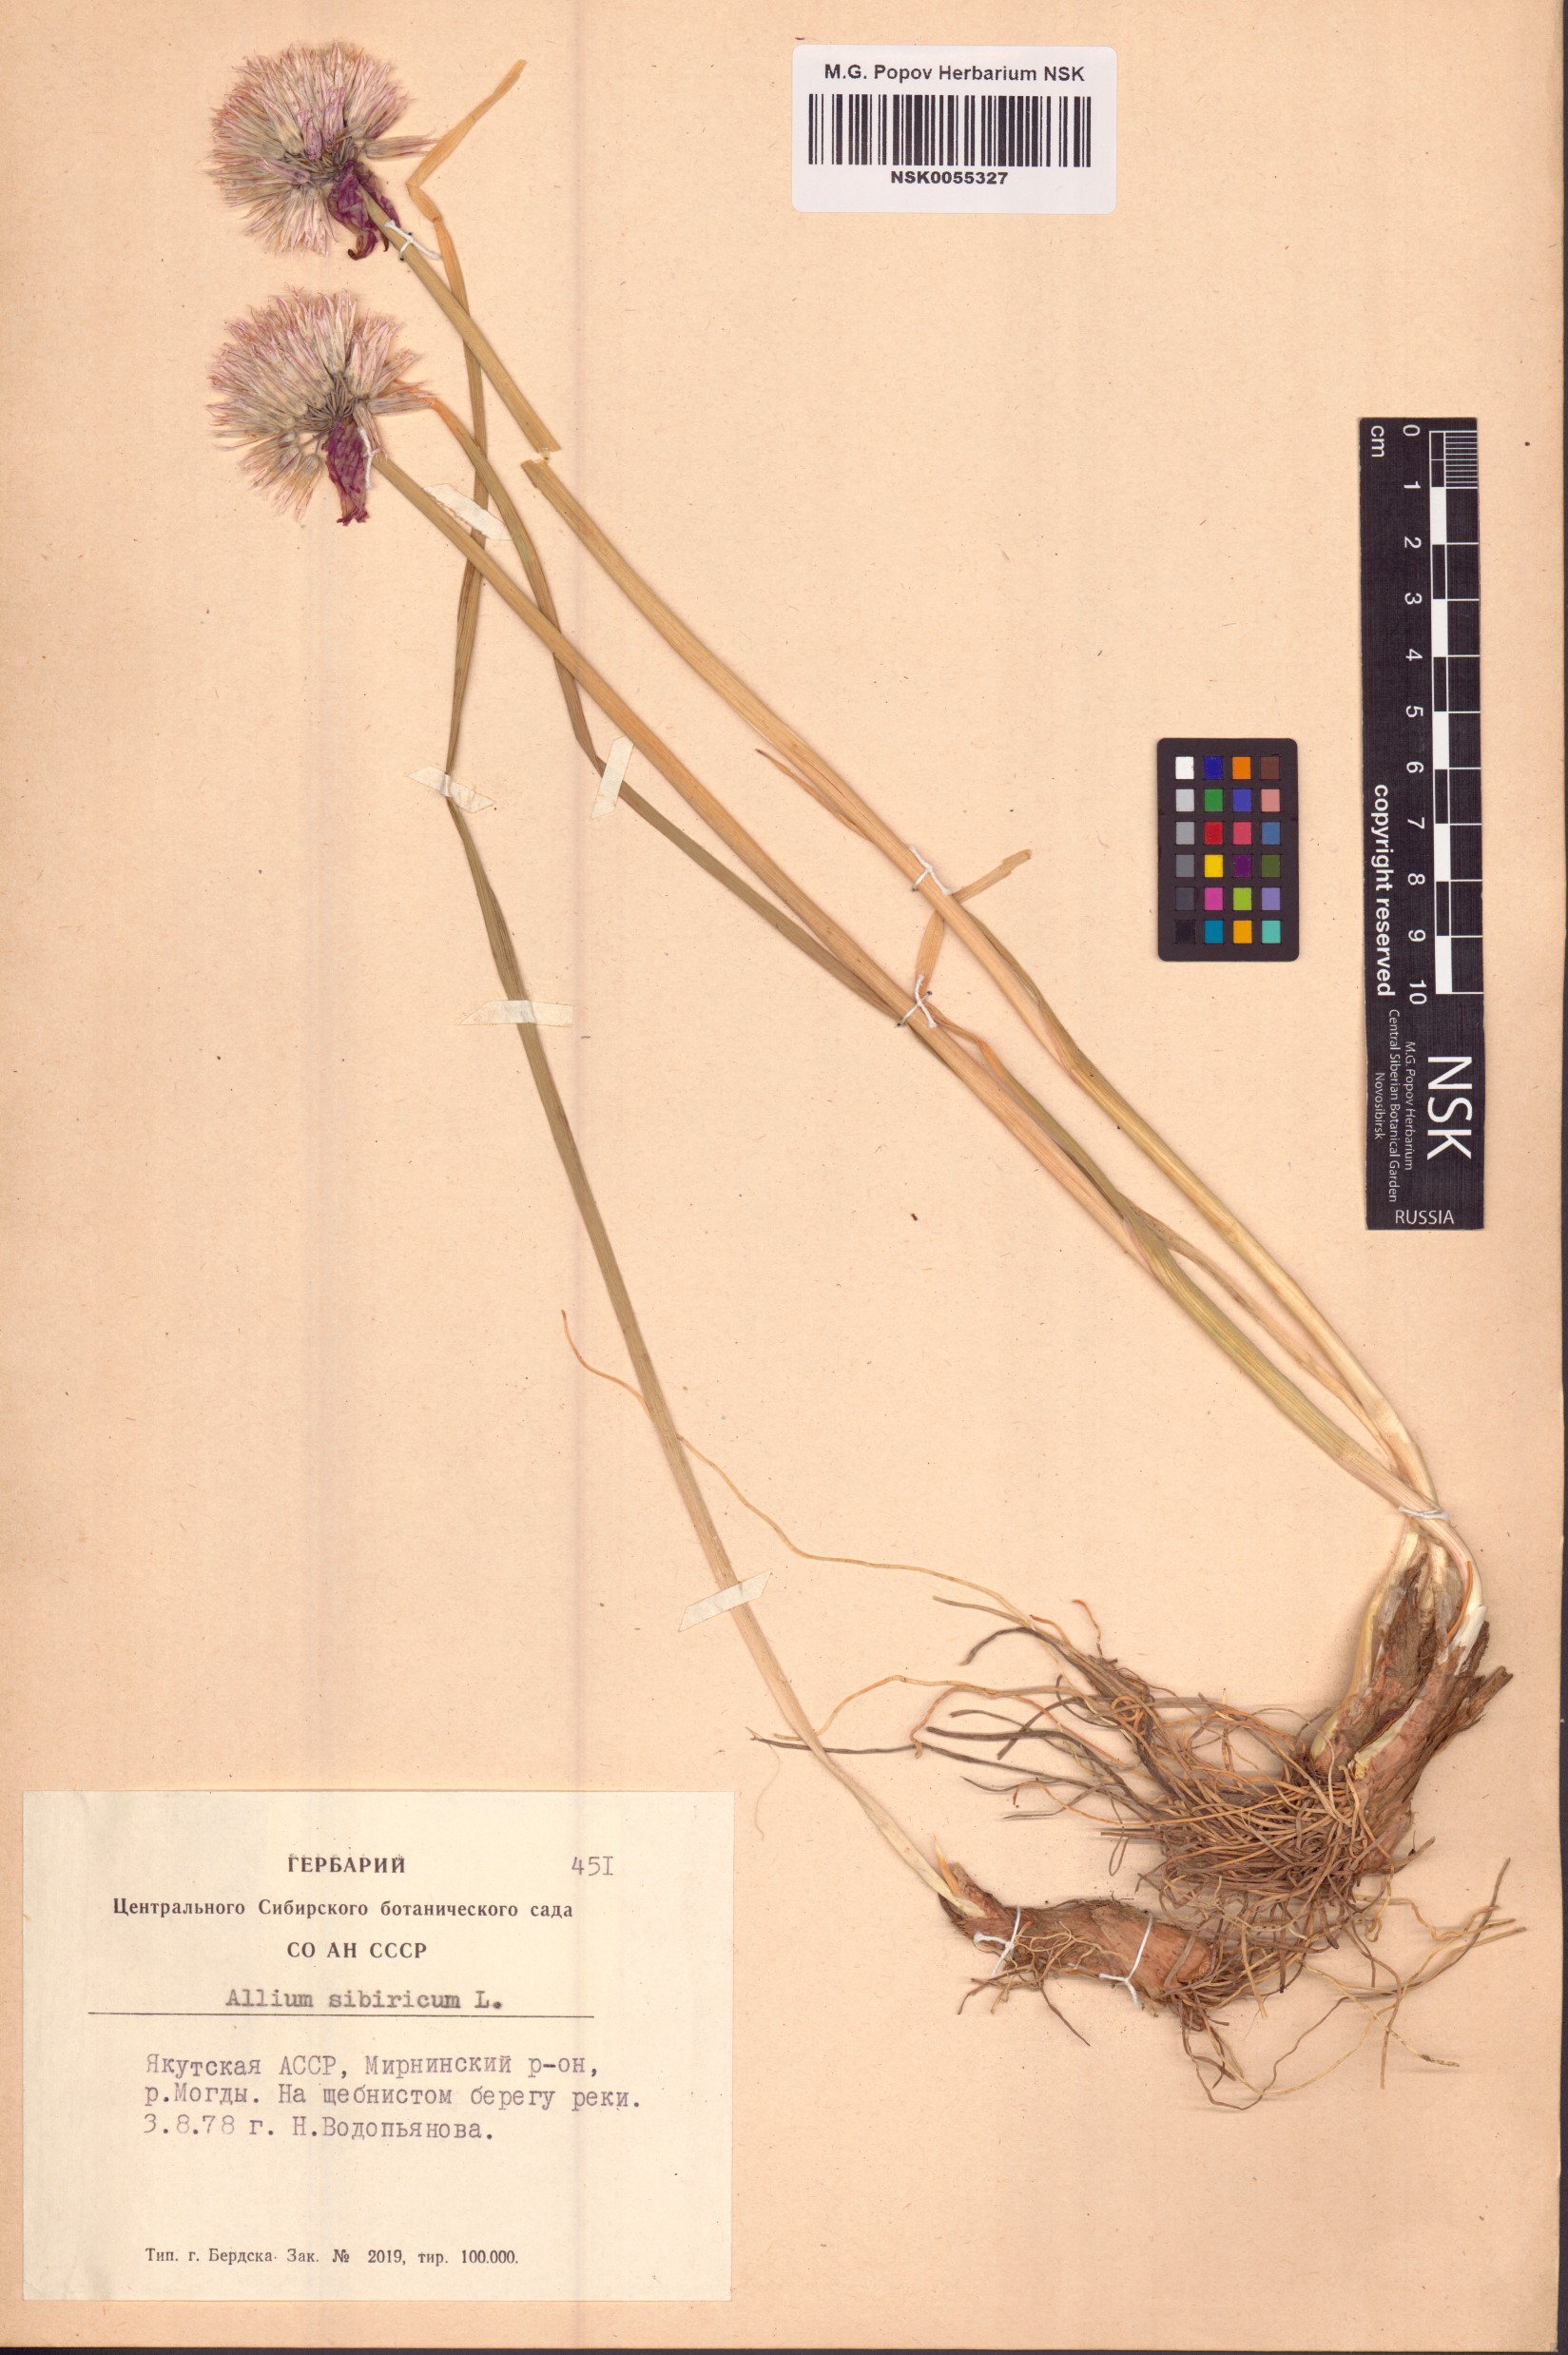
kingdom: Plantae
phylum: Tracheophyta
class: Liliopsida
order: Asparagales
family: Amaryllidaceae
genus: Allium
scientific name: Allium schoenoprasum
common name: Chives
